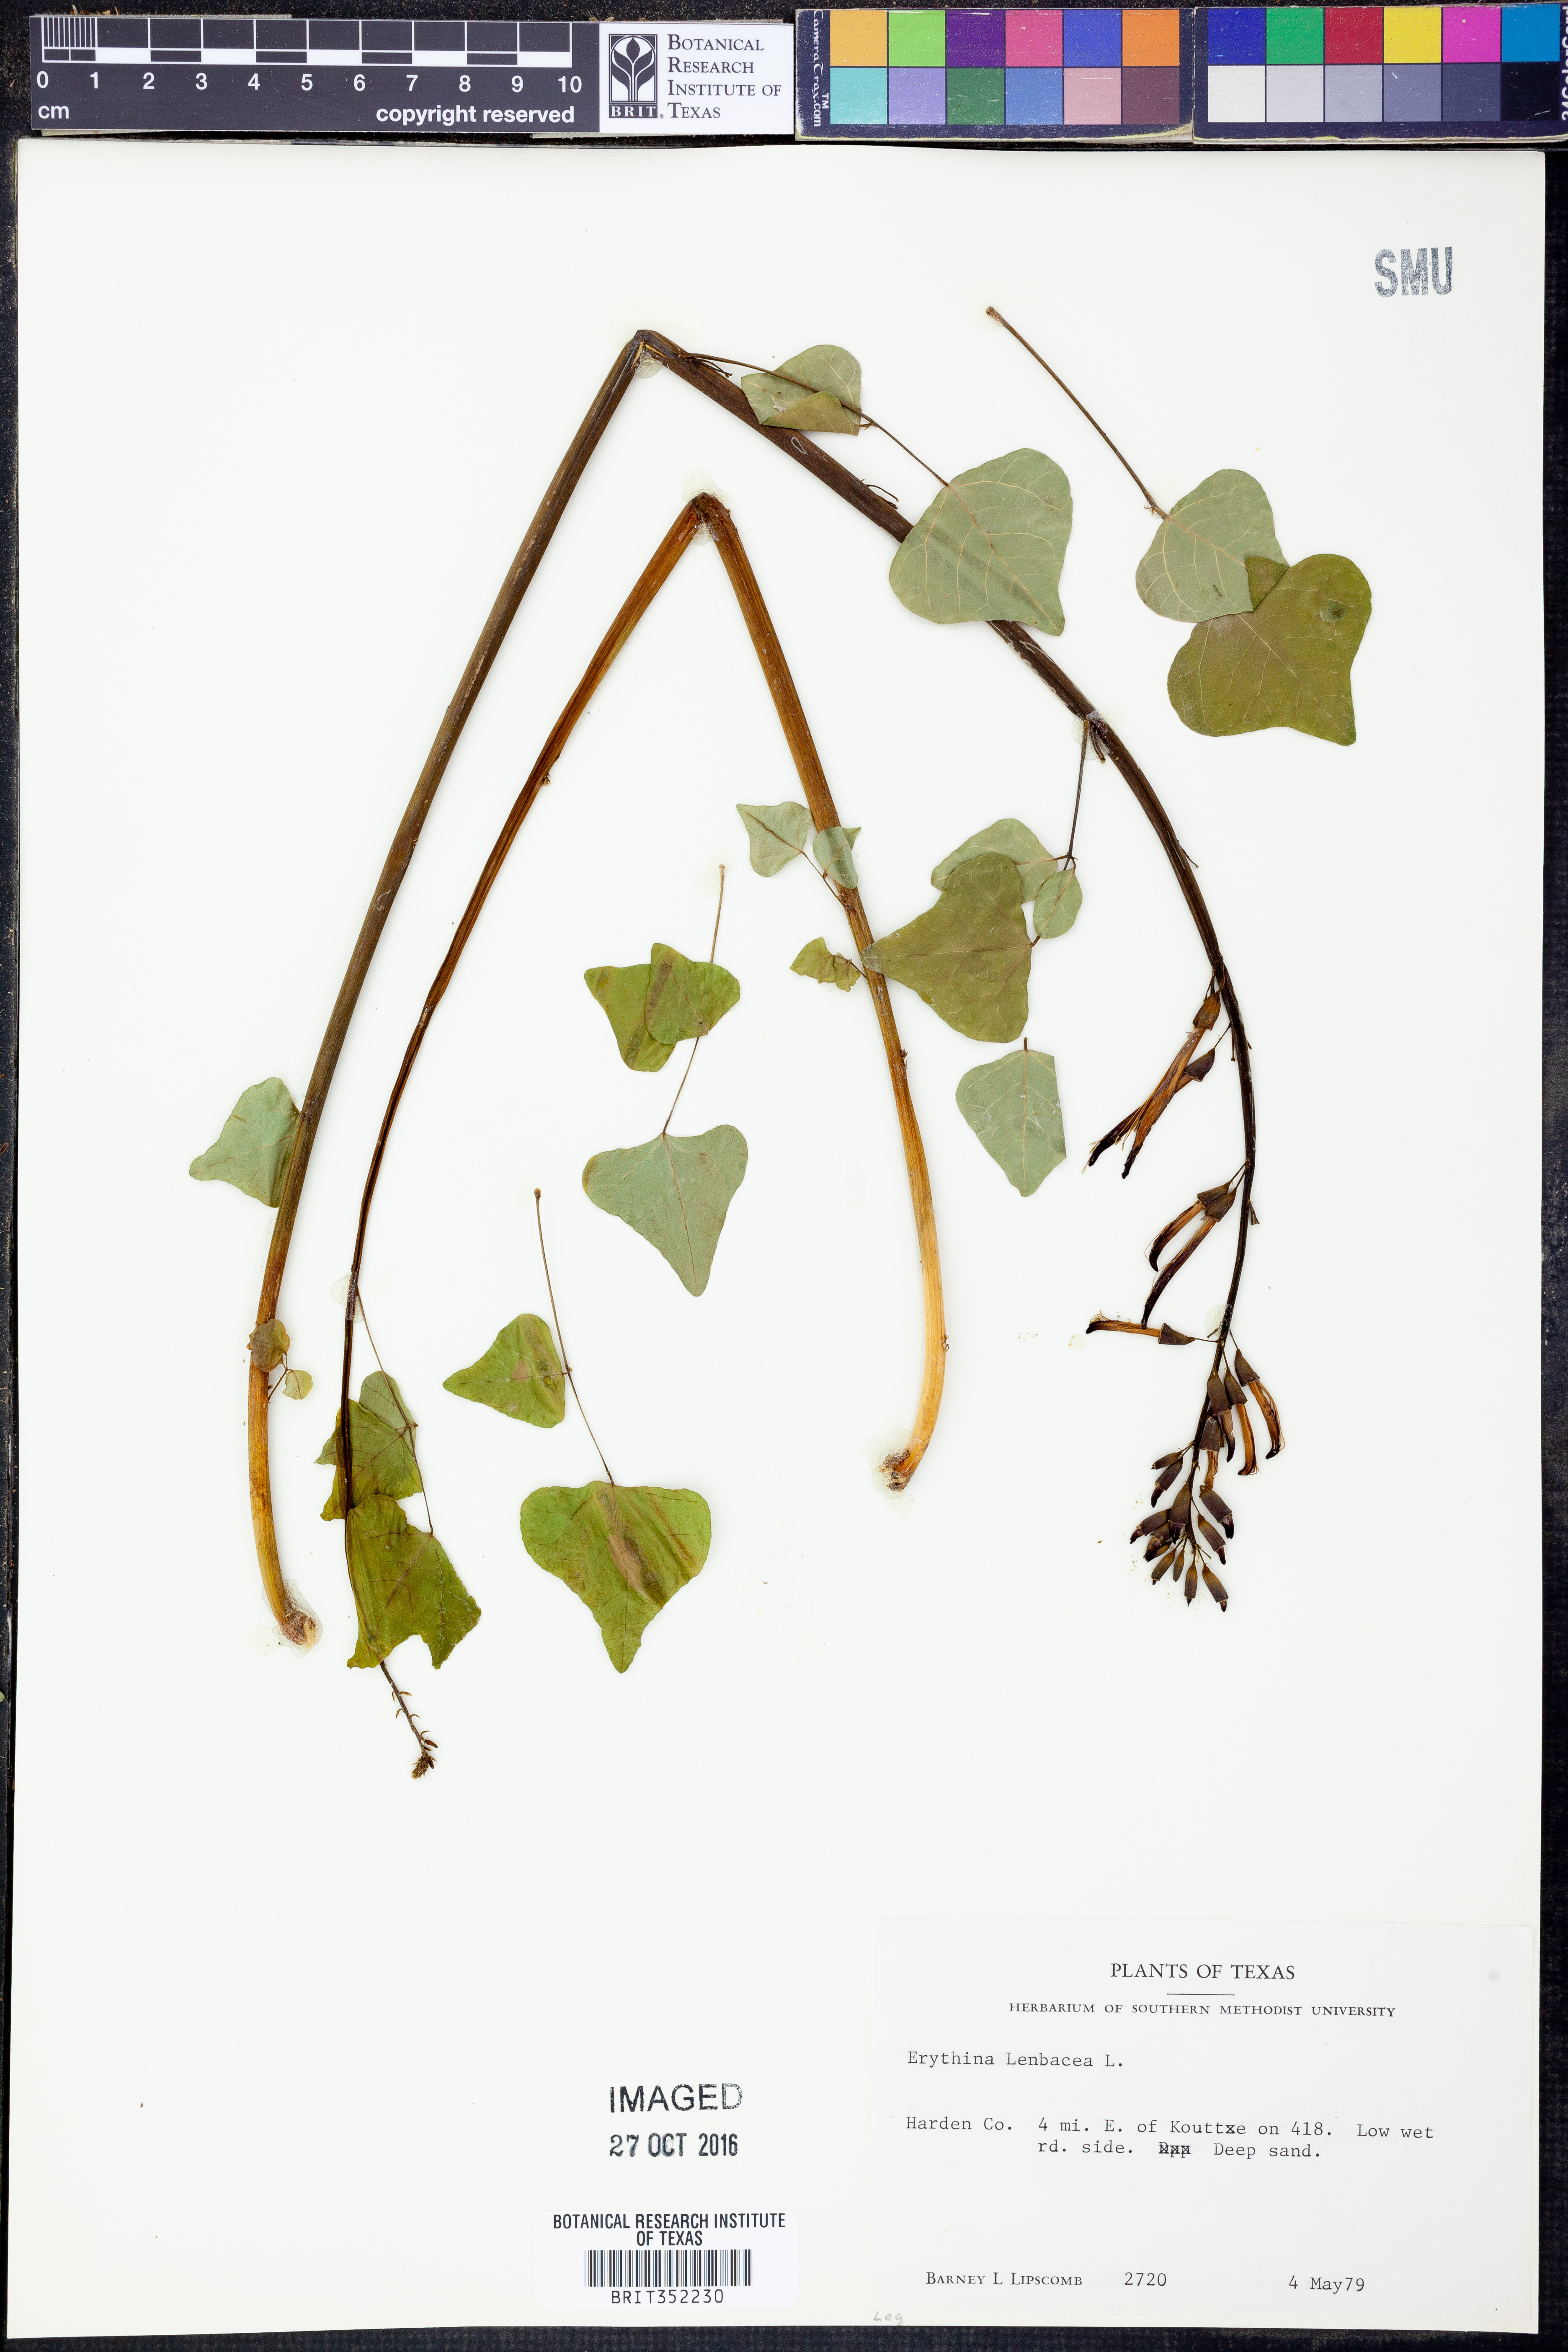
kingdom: Plantae
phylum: Tracheophyta
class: Magnoliopsida
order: Fabales
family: Fabaceae
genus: Erythrina
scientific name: Erythrina herbacea
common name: Coral-bean
